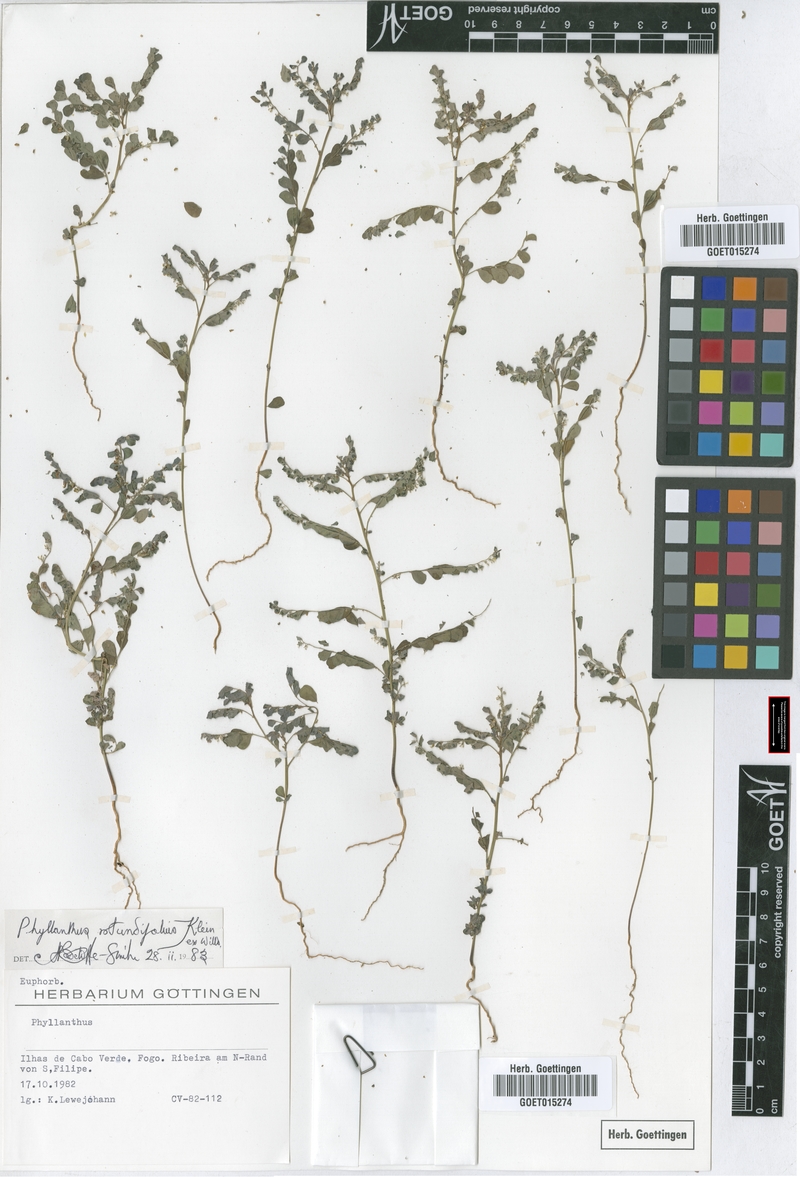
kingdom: Plantae
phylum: Tracheophyta
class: Magnoliopsida
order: Malpighiales
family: Phyllanthaceae
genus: Phyllanthus
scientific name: Phyllanthus rotundifolius
